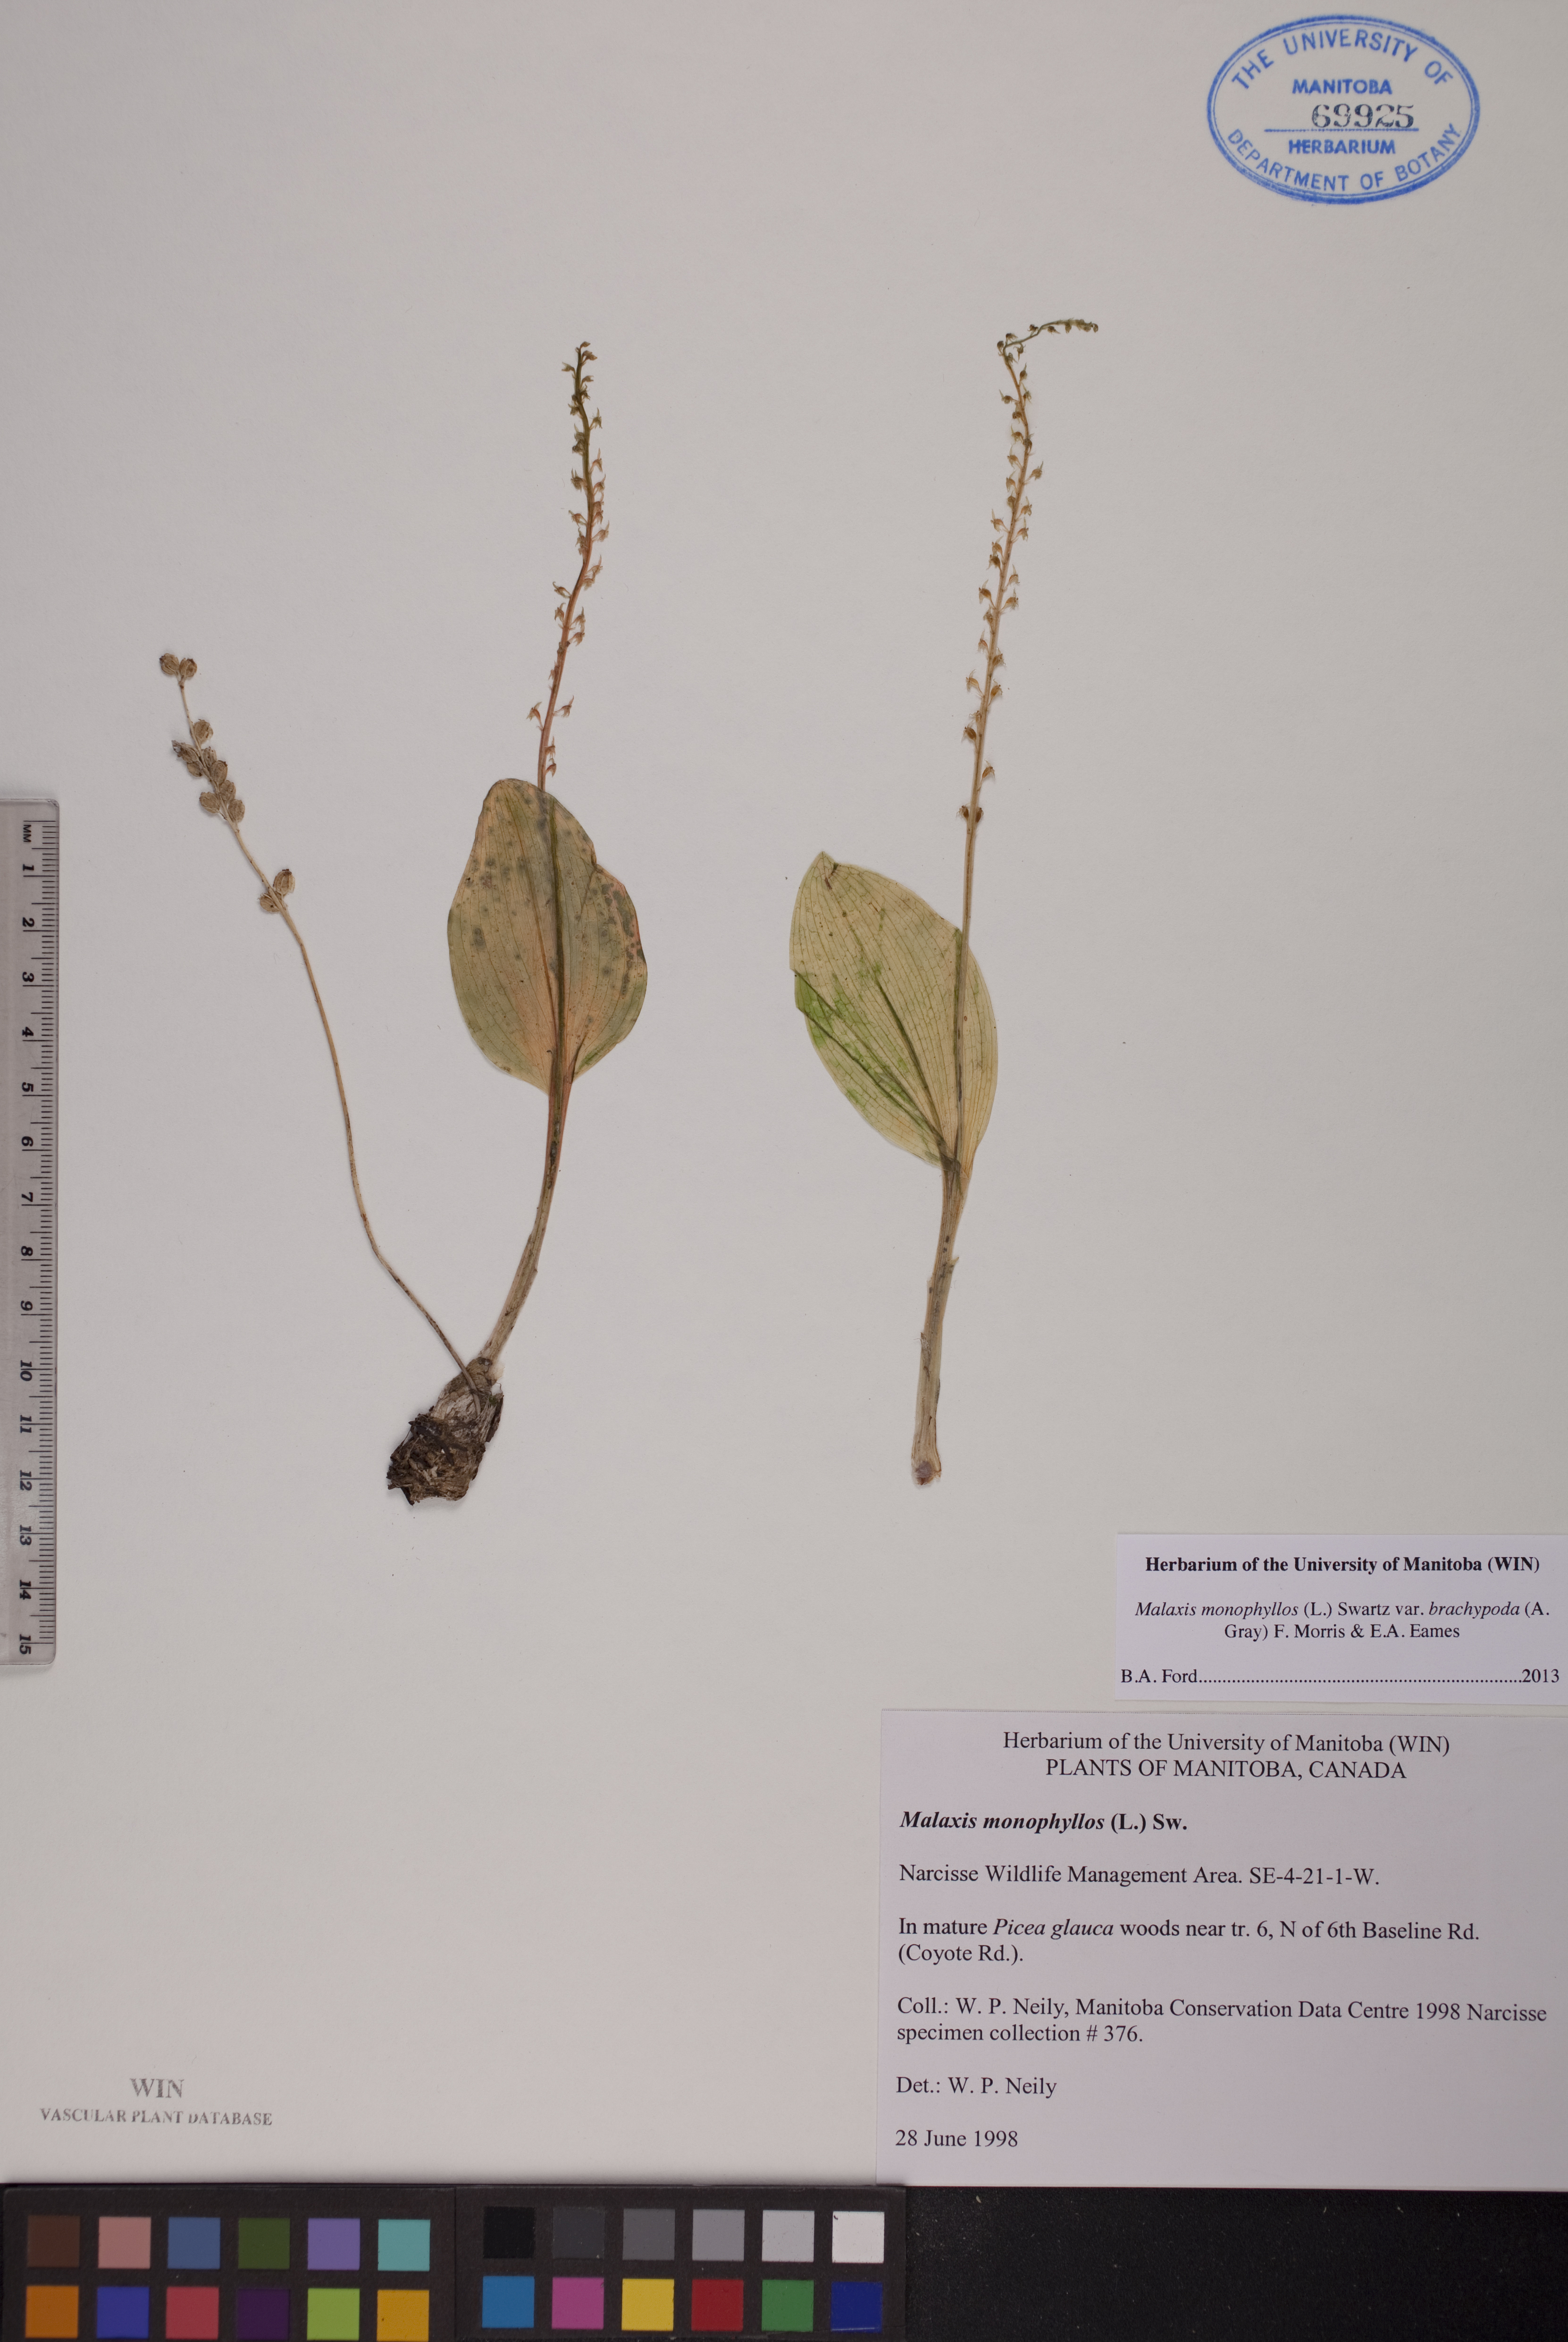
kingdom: Plantae
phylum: Tracheophyta
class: Liliopsida
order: Asparagales
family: Orchidaceae
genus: Malaxis
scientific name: Malaxis monophyllos
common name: White adder's-mouth
